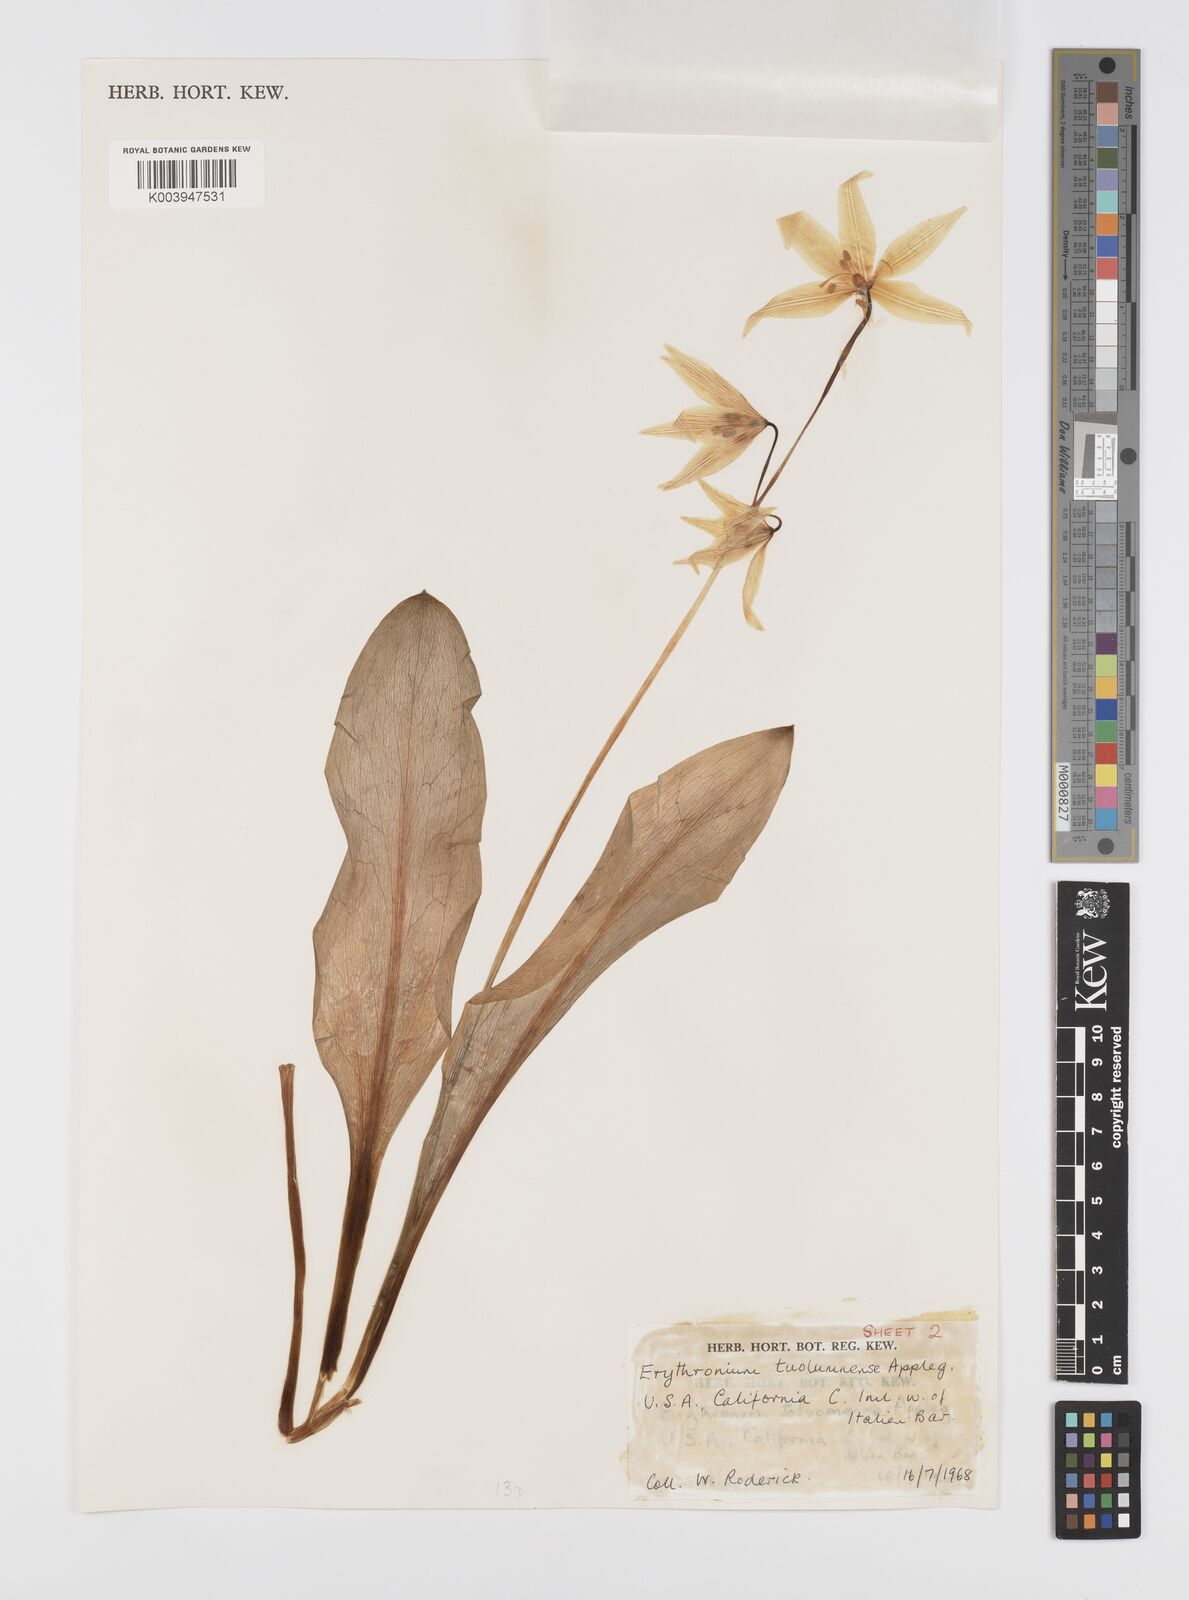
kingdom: Plantae
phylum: Tracheophyta
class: Liliopsida
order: Liliales
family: Liliaceae
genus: Erythronium
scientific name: Erythronium tuolumnense
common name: Tuolumne fawn-lily
